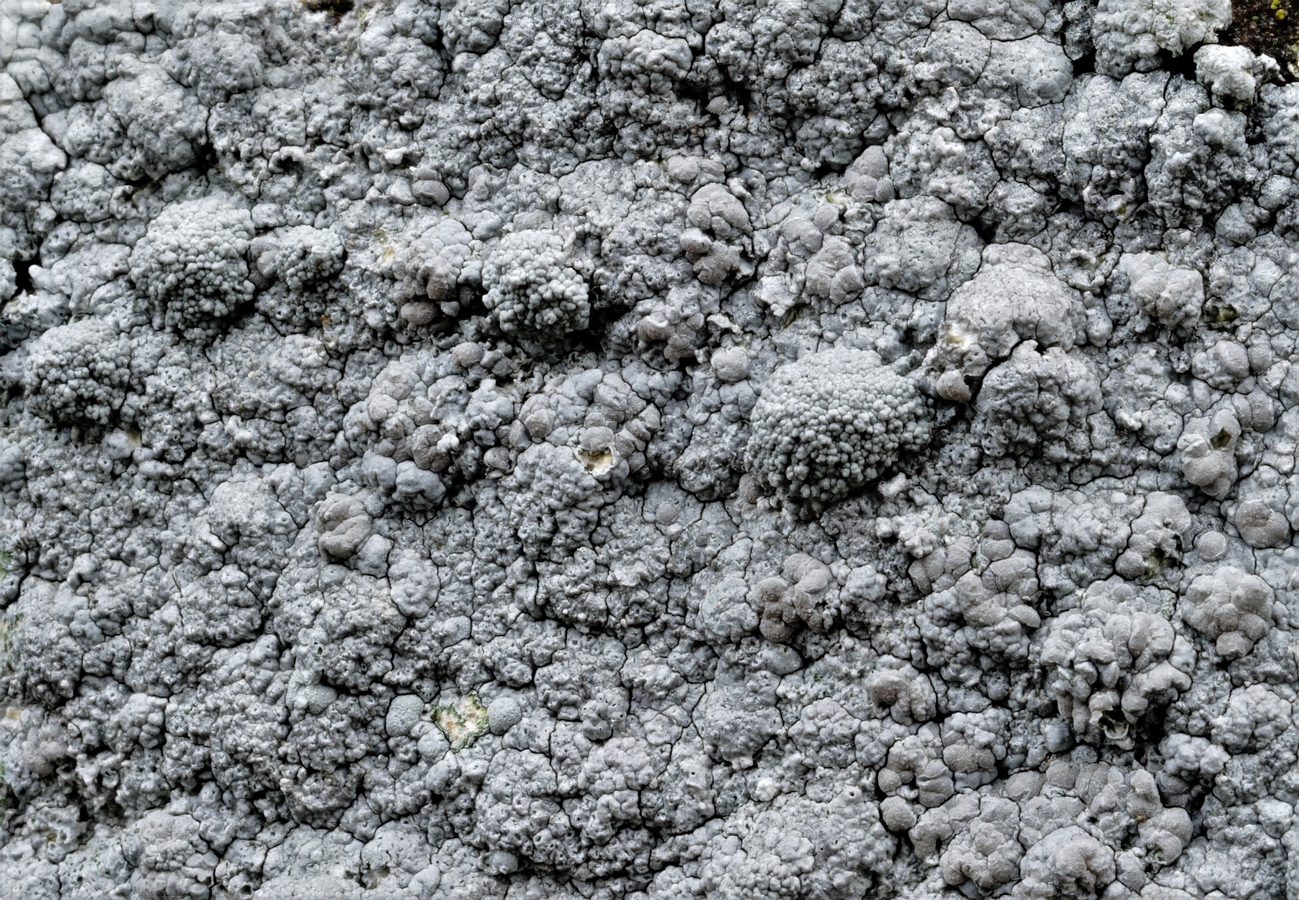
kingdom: Fungi
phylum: Ascomycota
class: Lecanoromycetes
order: Lecanorales
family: Lecanoraceae
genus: Glaucomaria
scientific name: Glaucomaria rupicola
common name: stengærde-kantskivelav
